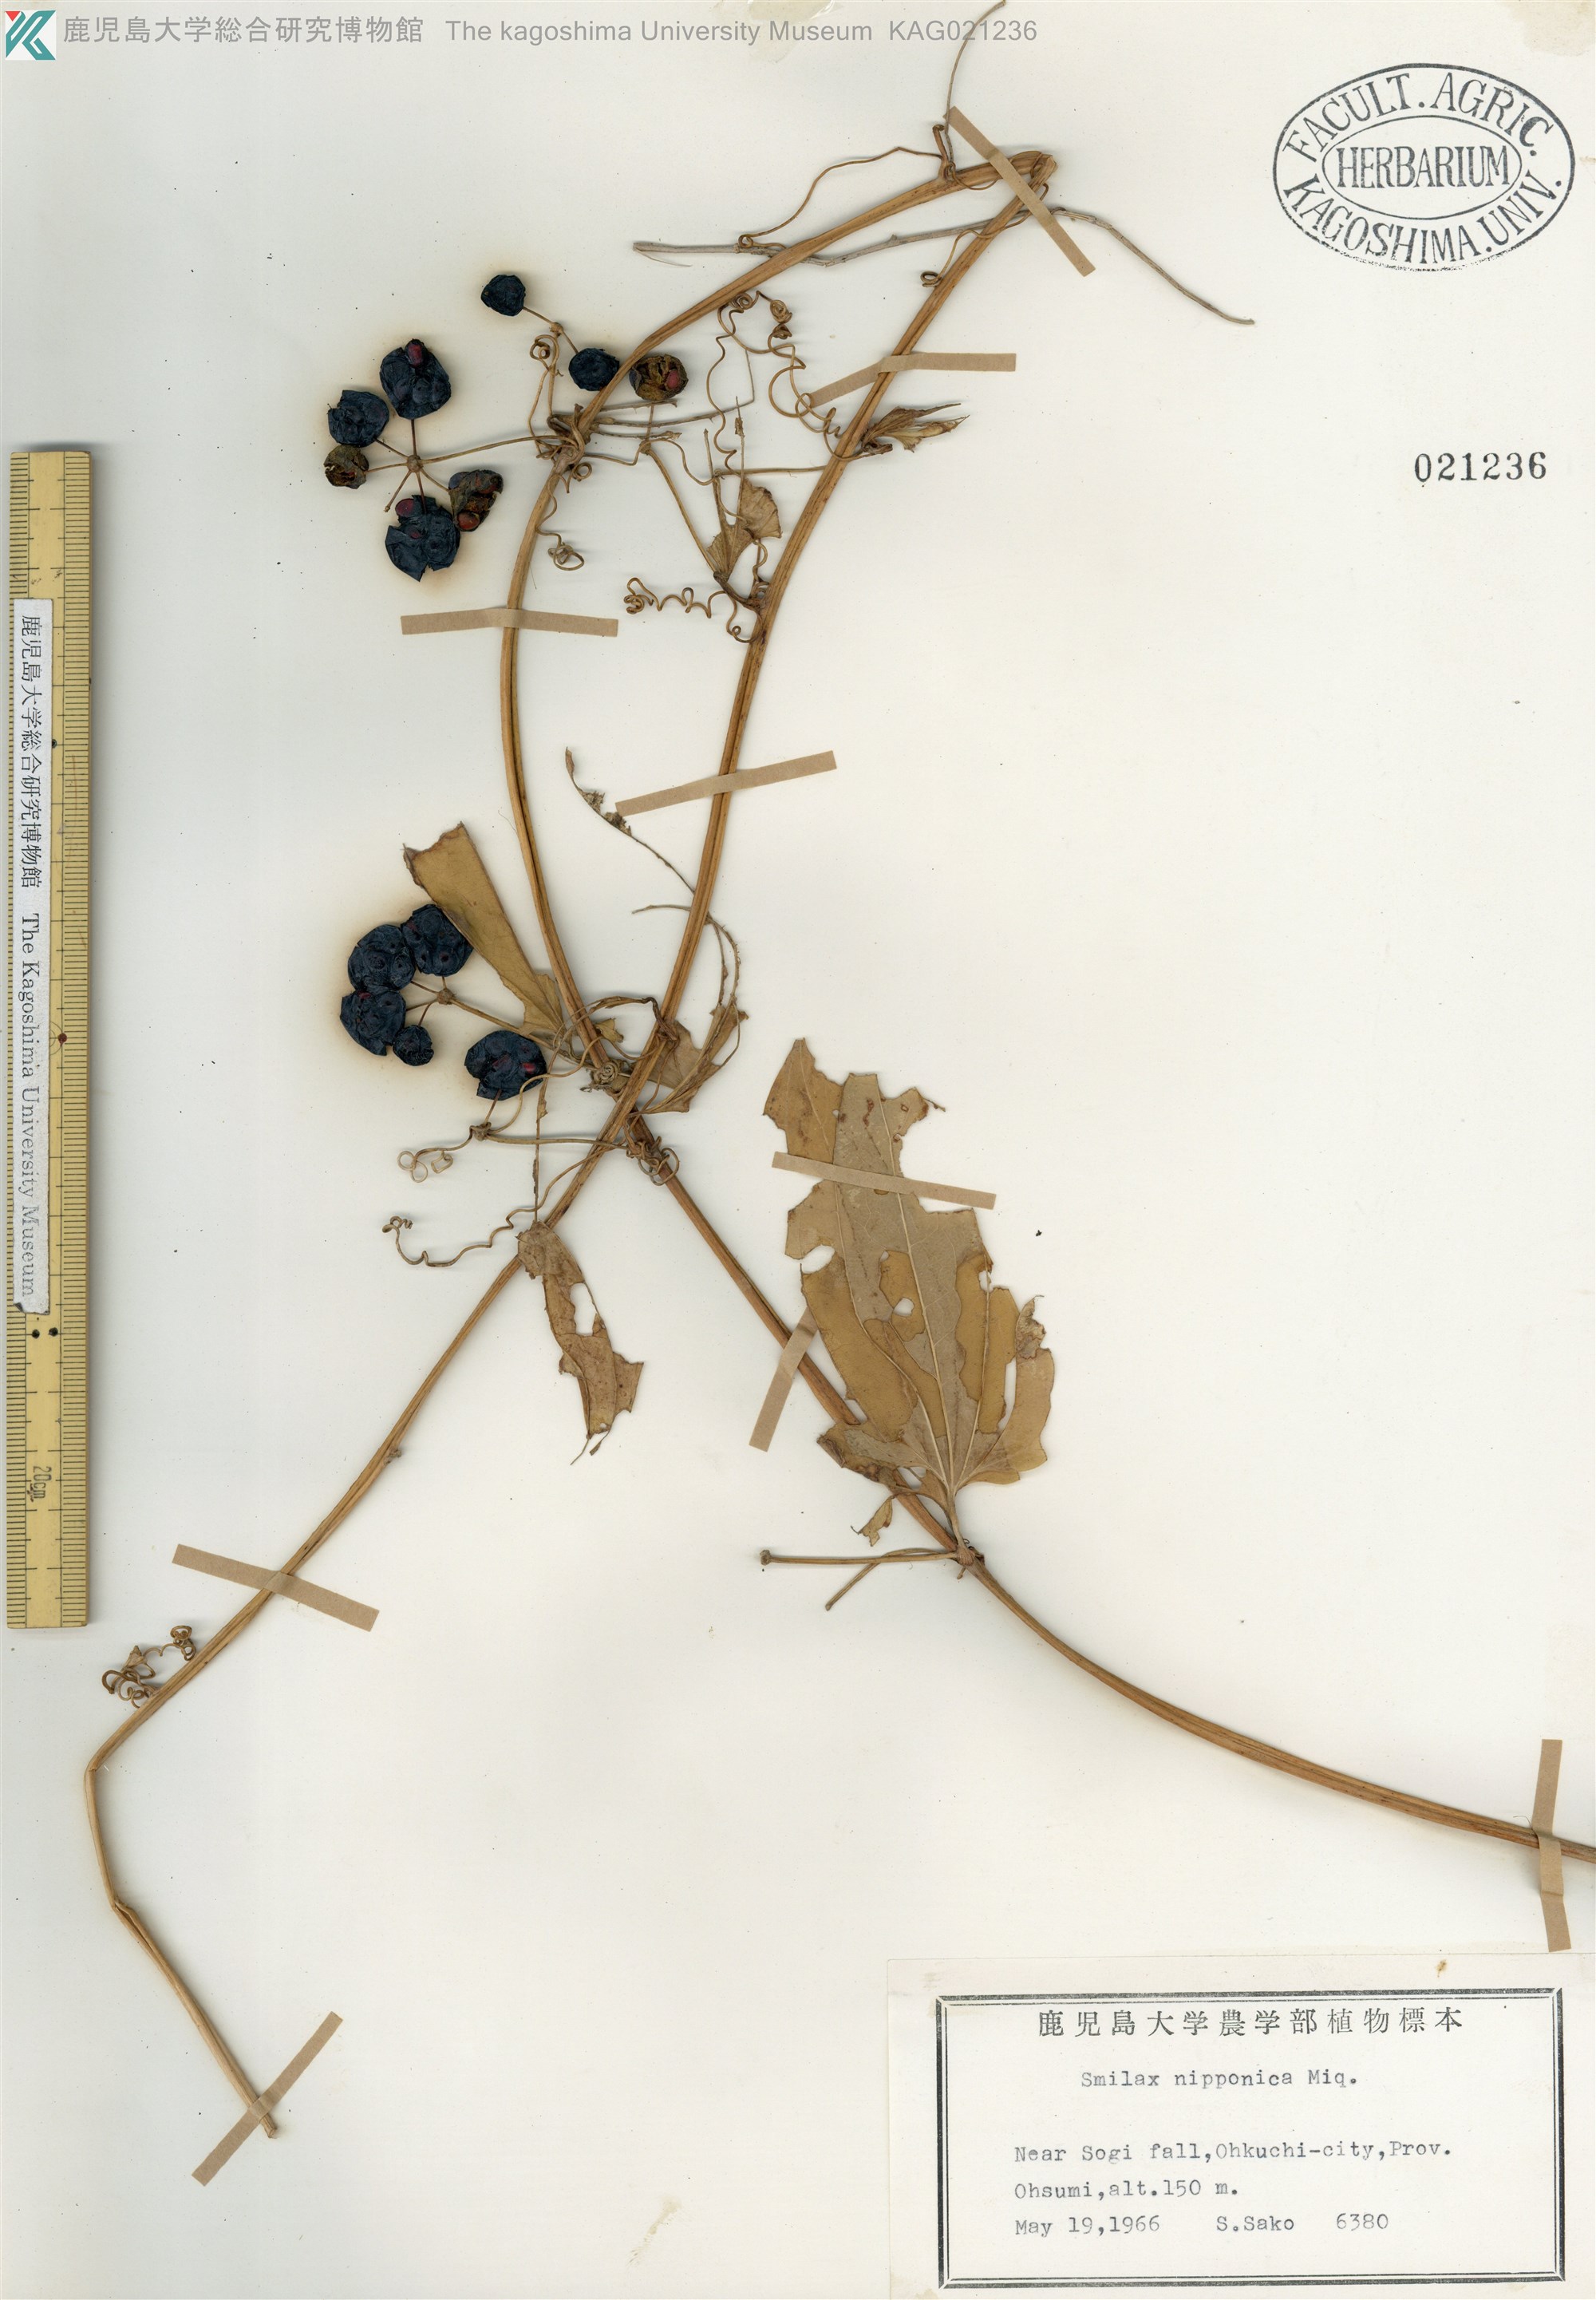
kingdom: Plantae
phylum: Tracheophyta
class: Liliopsida
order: Liliales
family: Smilacaceae
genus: Smilax
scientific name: Smilax riparia
